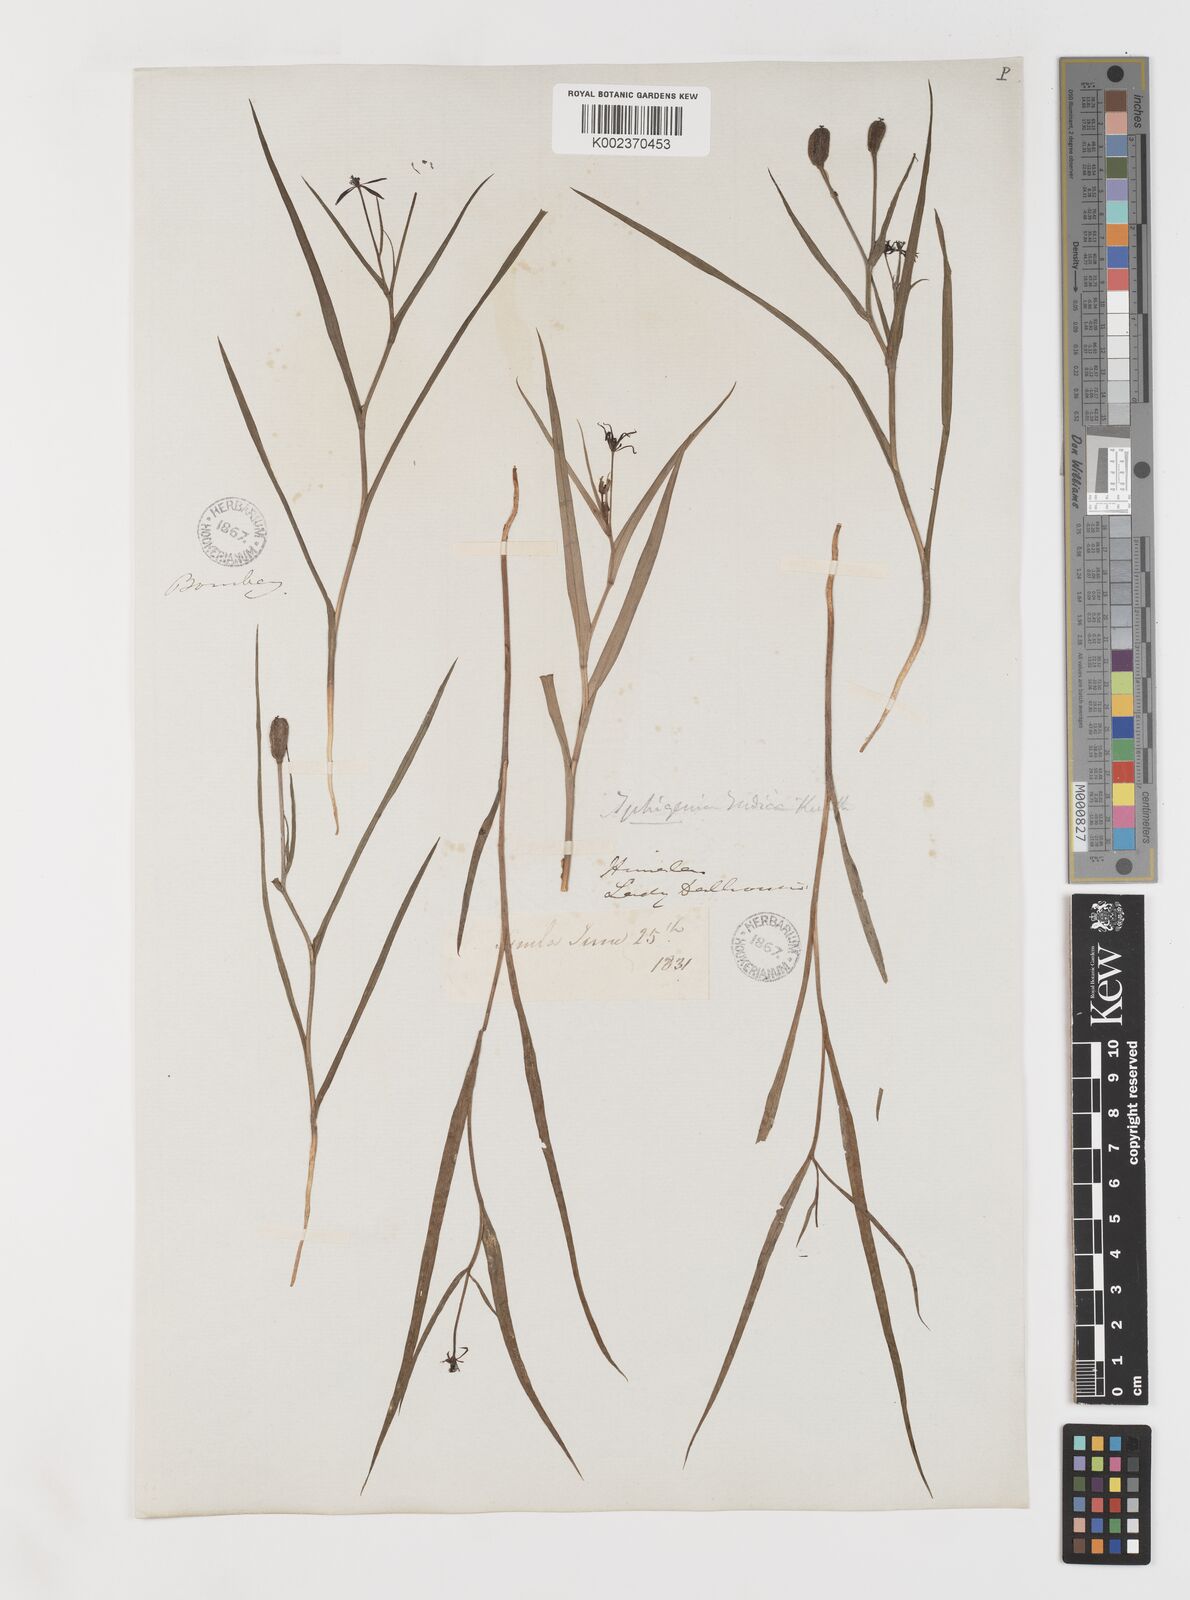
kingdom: Plantae
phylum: Tracheophyta
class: Liliopsida
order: Liliales
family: Colchicaceae
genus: Iphigenia
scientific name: Iphigenia indica
